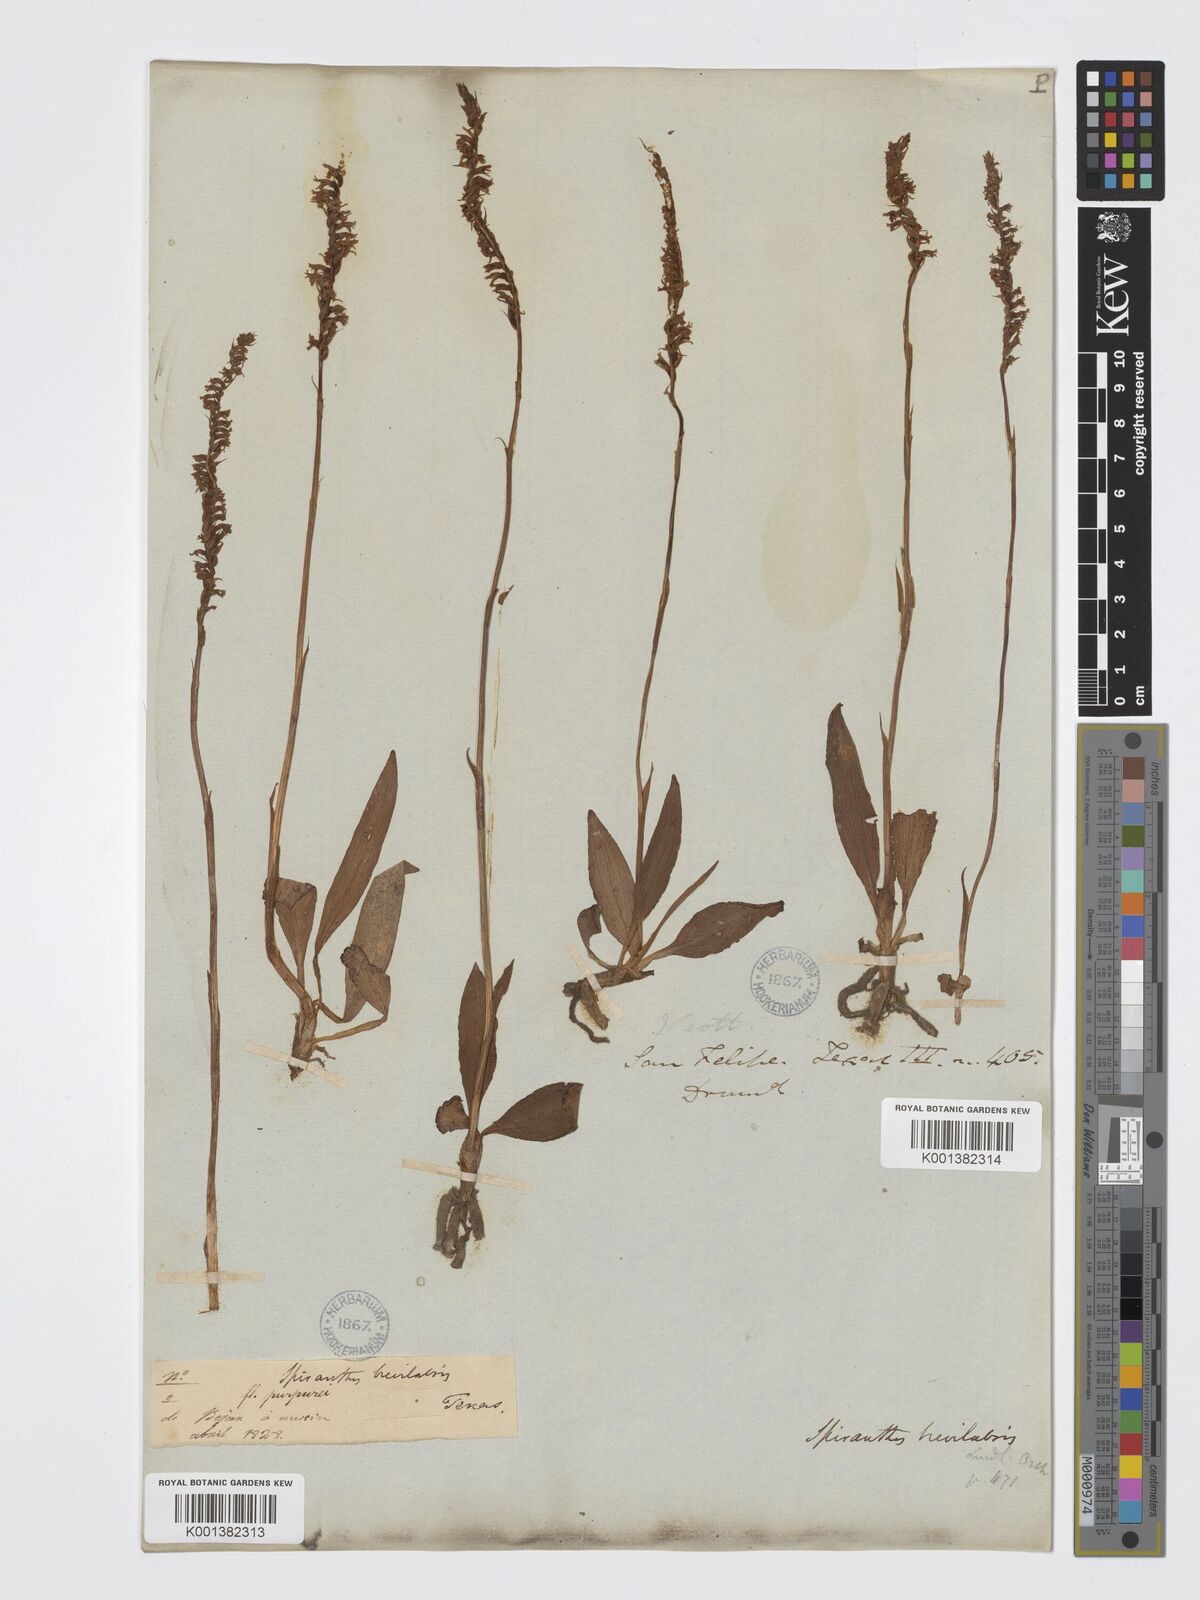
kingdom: Plantae
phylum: Tracheophyta
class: Liliopsida
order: Asparagales
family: Orchidaceae
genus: Spiranthes
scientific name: Spiranthes brevilabris
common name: Texas ladies'-tresses
